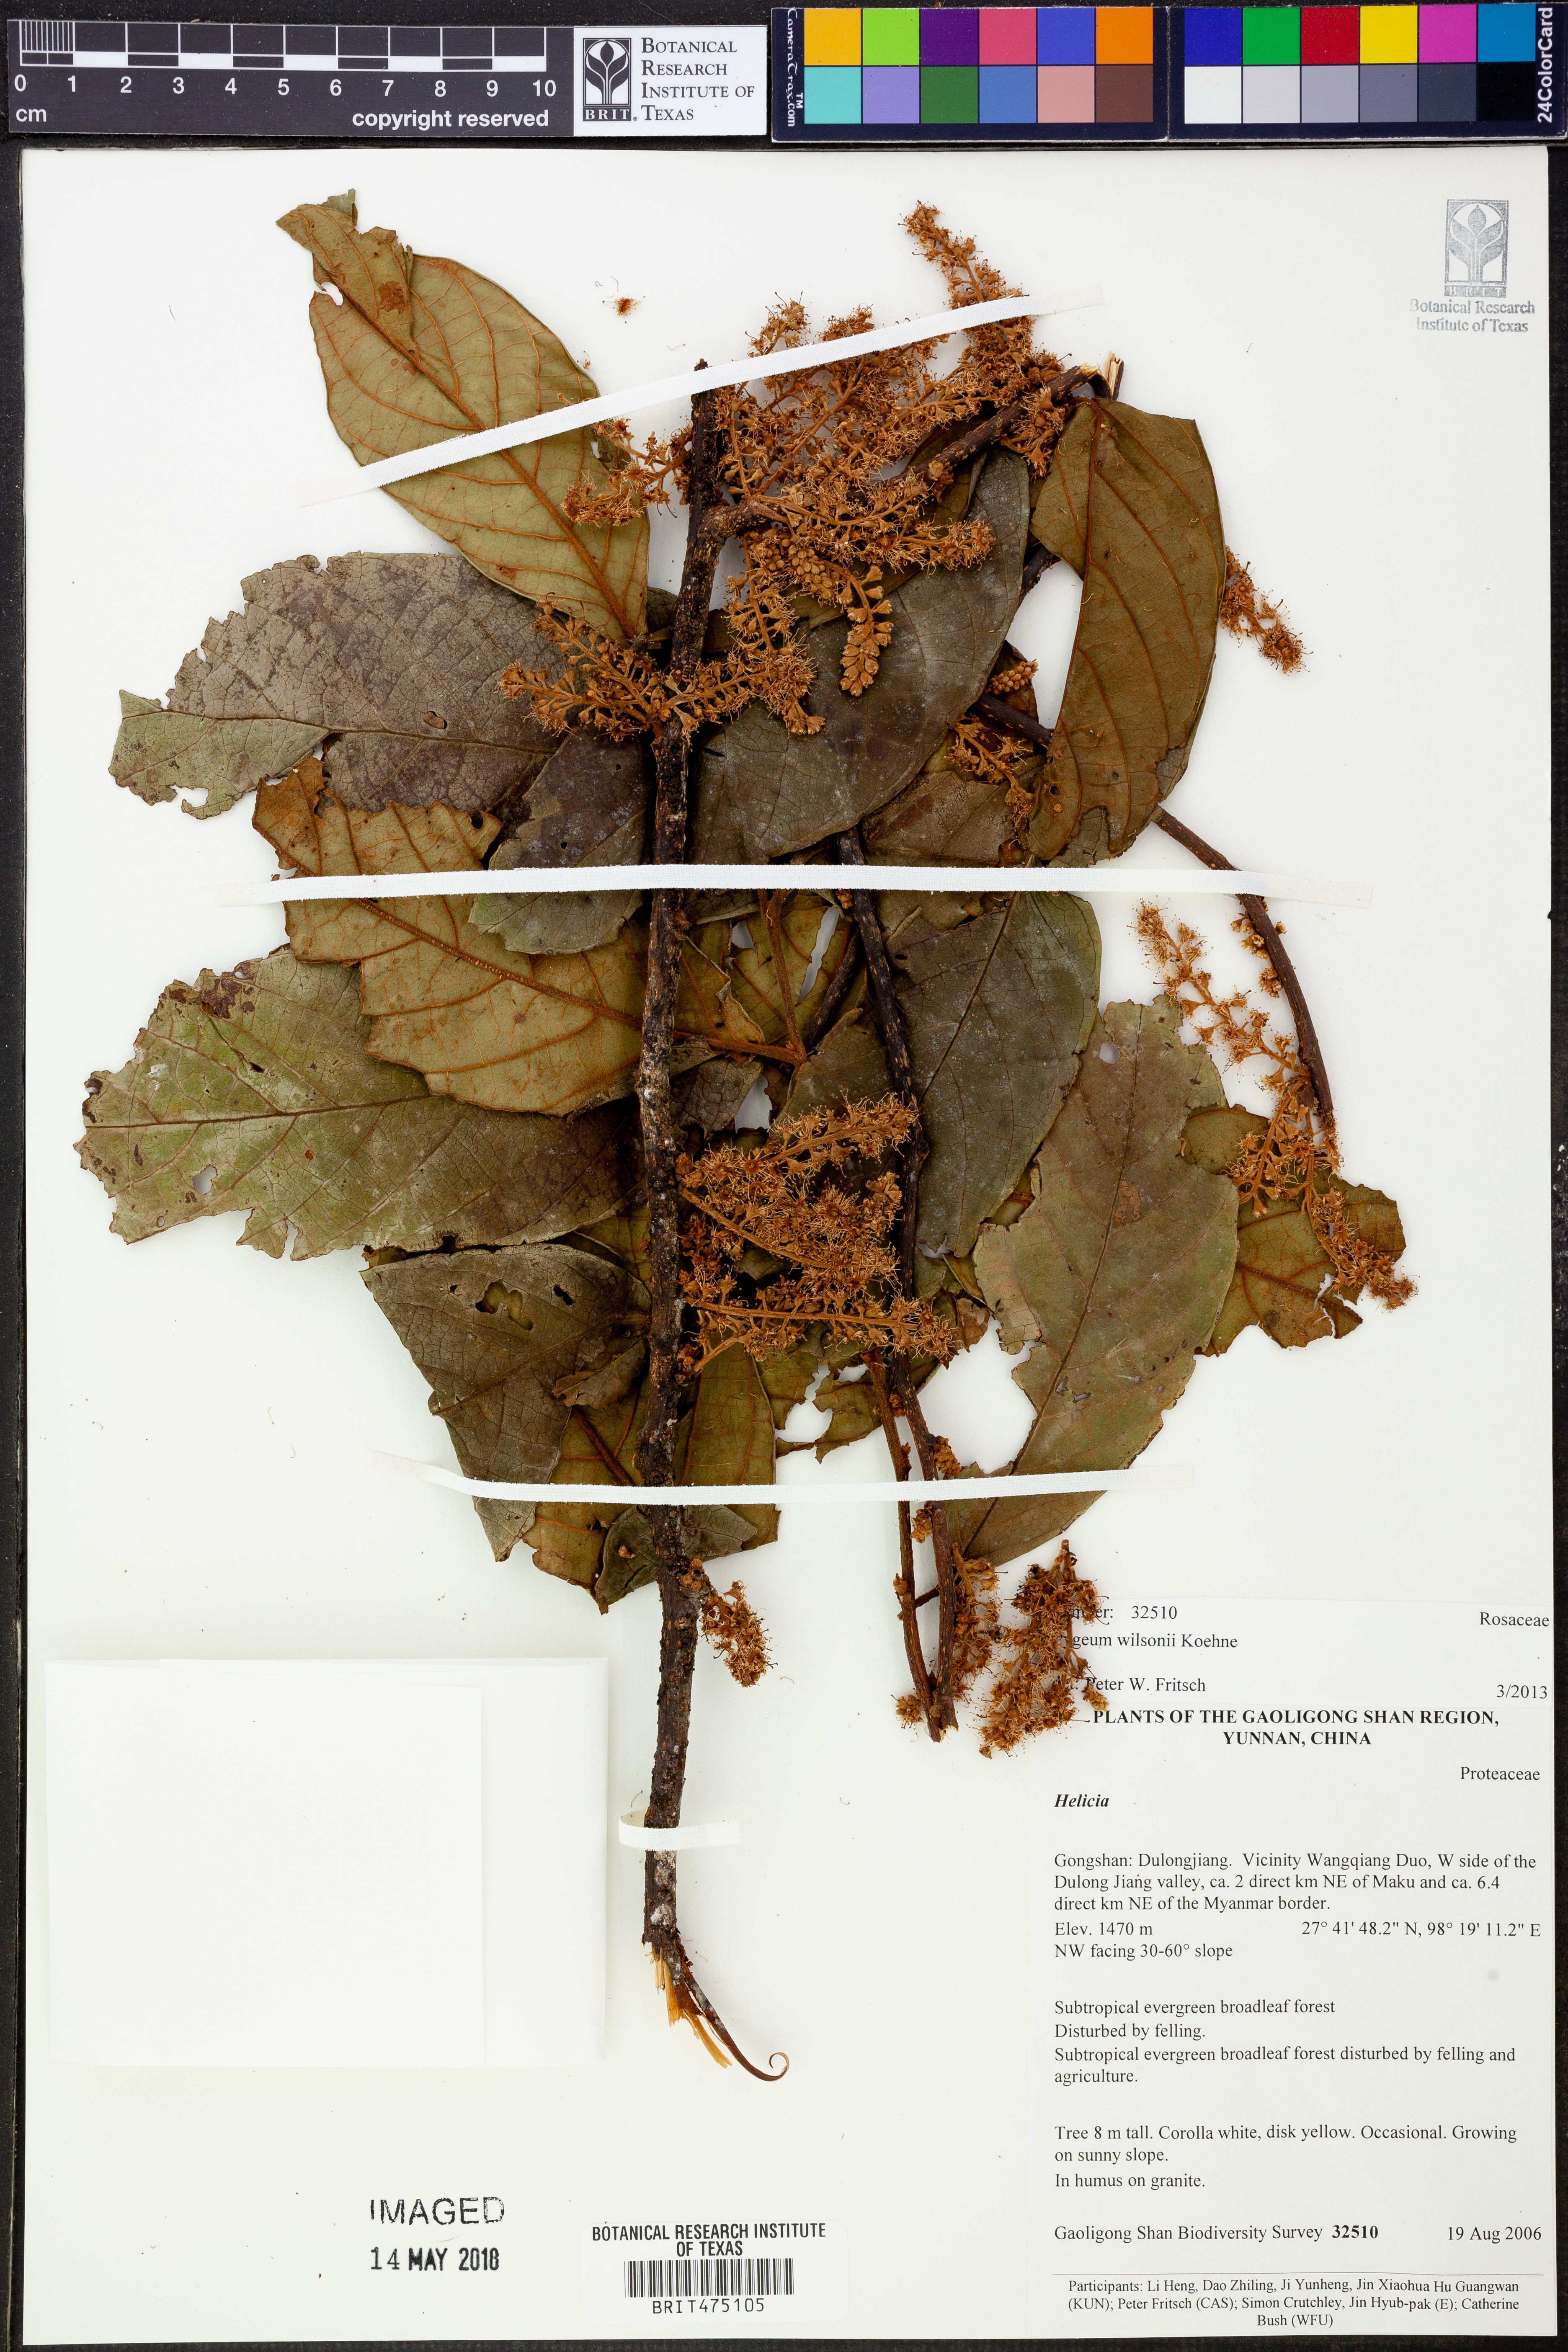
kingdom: Plantae
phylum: Tracheophyta
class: Magnoliopsida
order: Rosales
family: Rosaceae
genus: Prunus
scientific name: Prunus arborea
